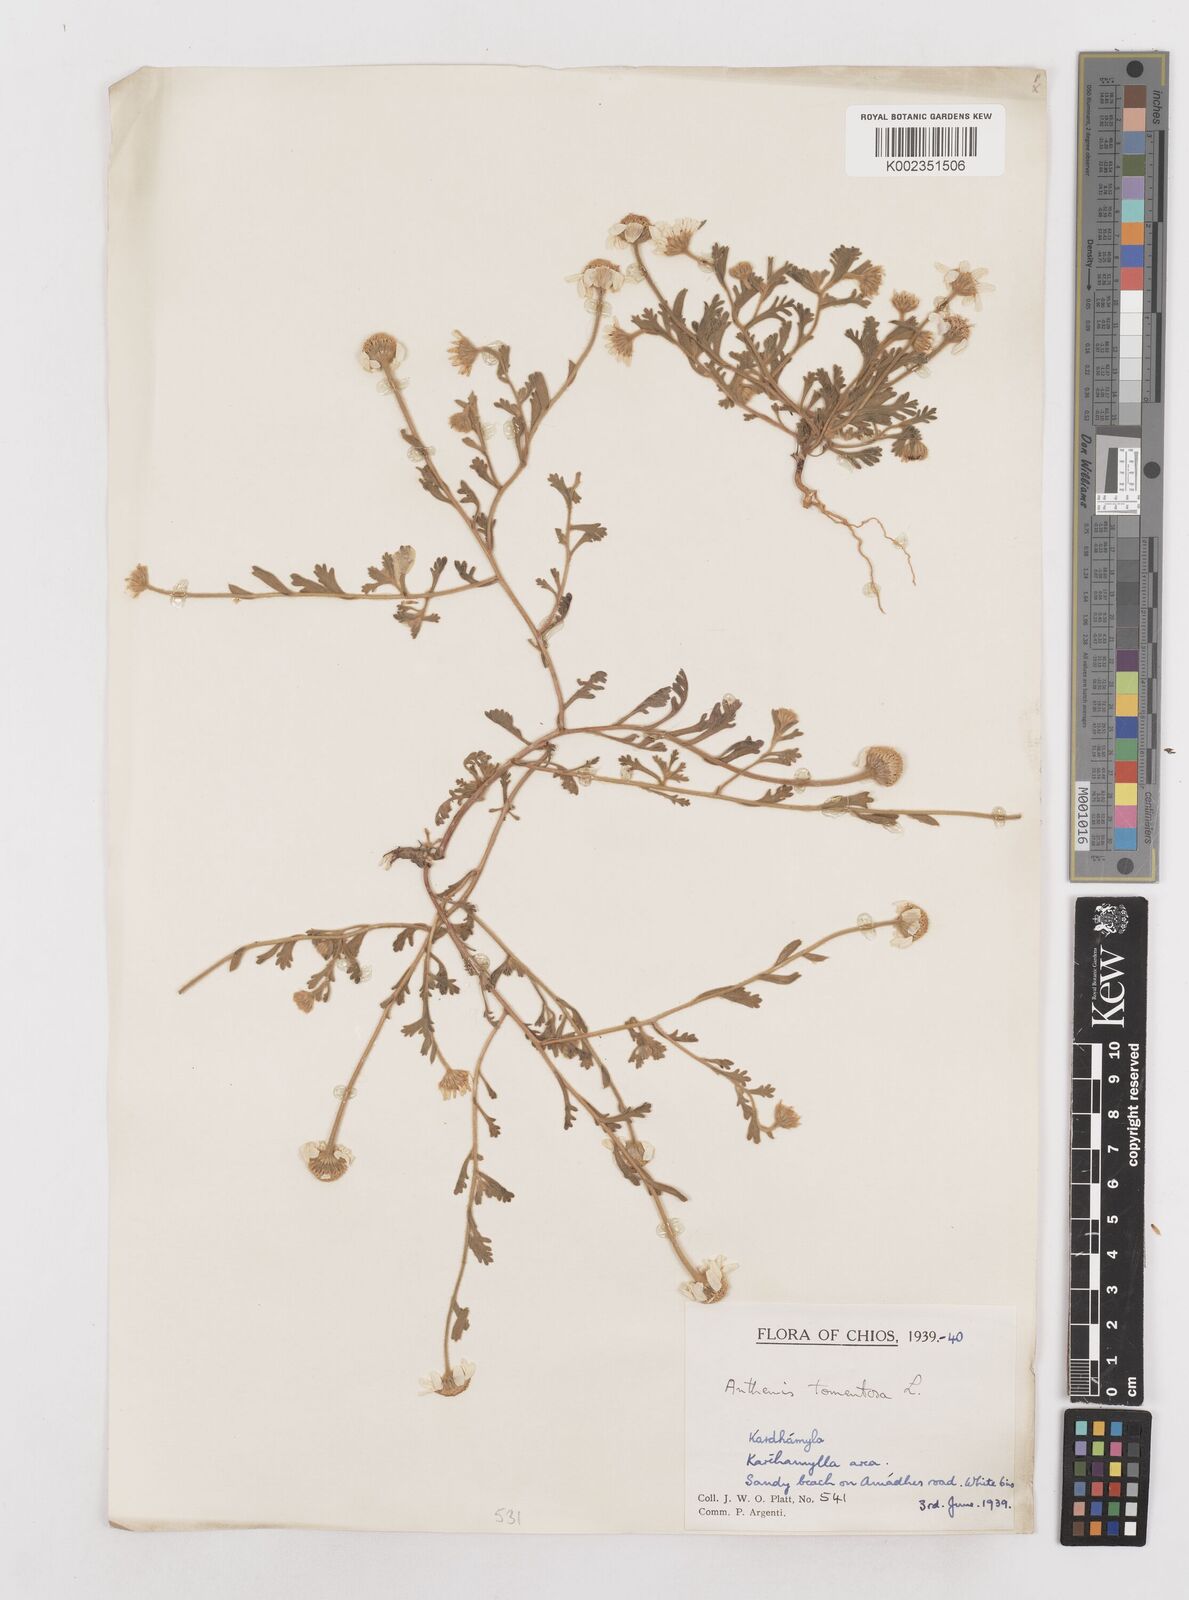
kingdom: Plantae
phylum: Tracheophyta
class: Magnoliopsida
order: Asterales
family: Asteraceae
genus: Anthemis
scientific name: Anthemis tomentosa
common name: Woolly chamomile
